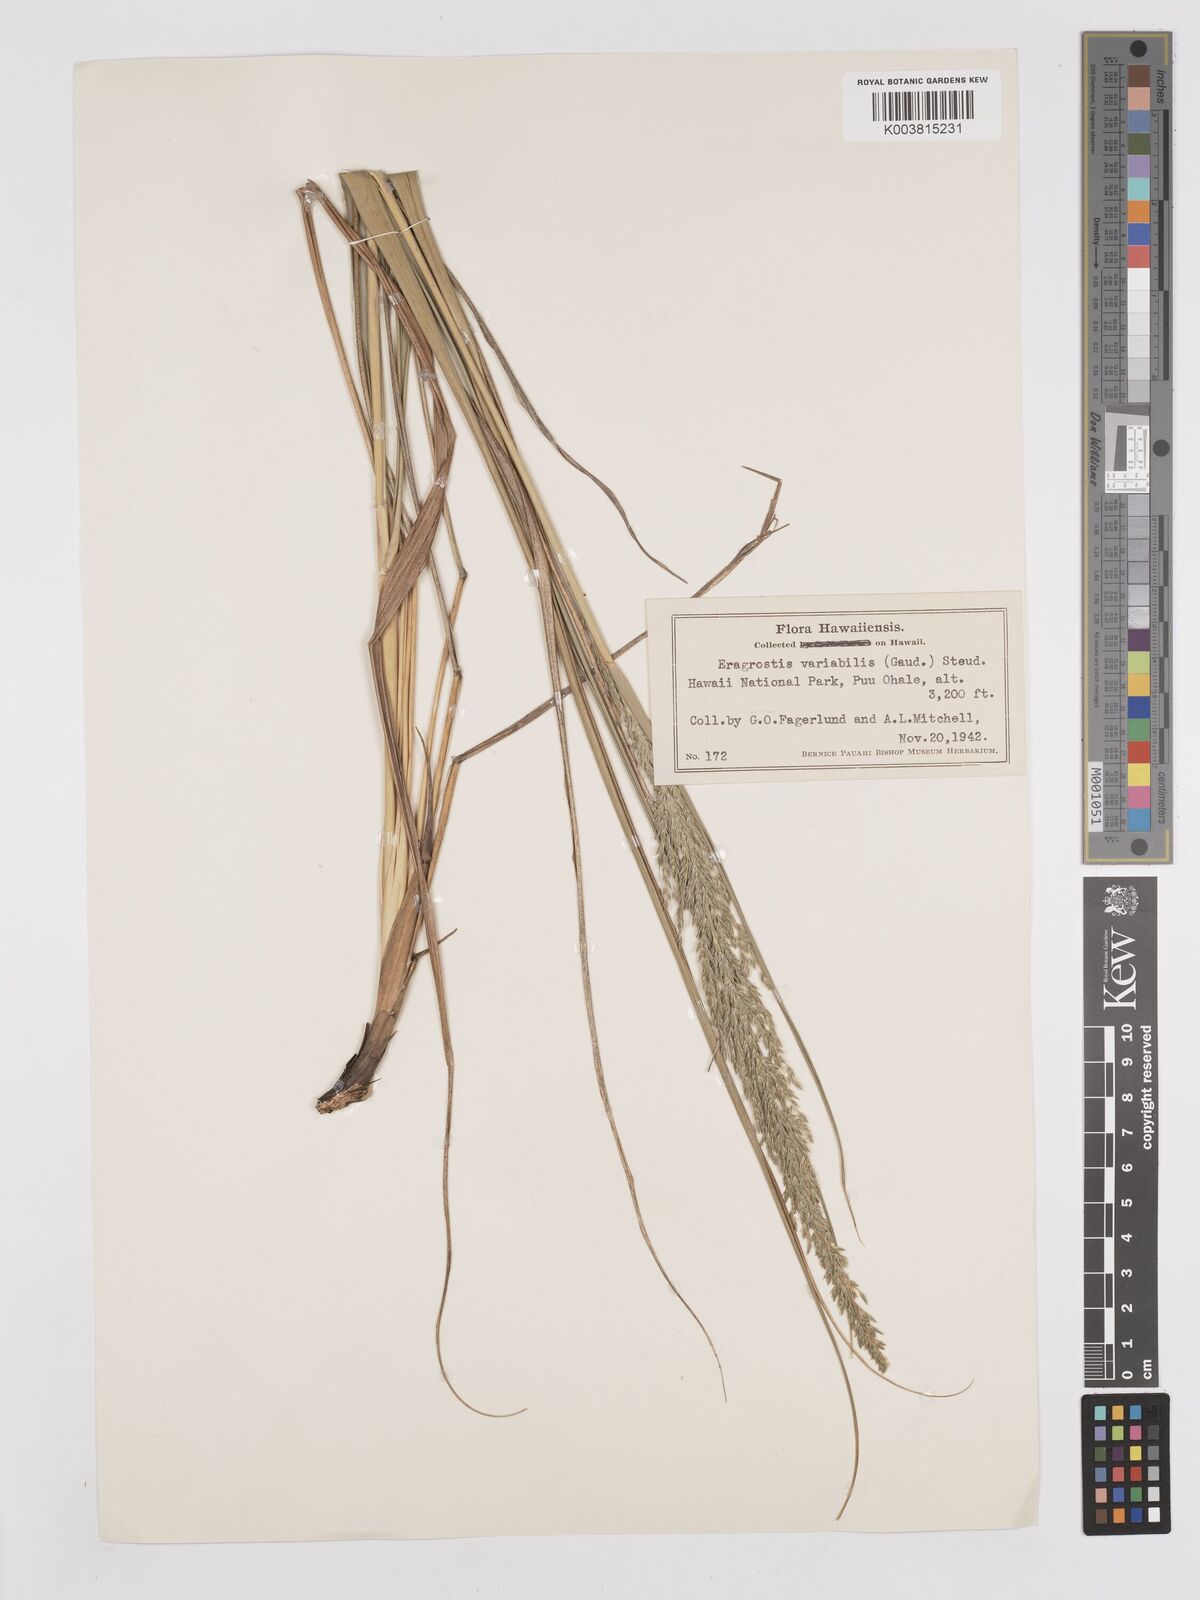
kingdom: Plantae
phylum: Tracheophyta
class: Liliopsida
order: Poales
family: Poaceae
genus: Eragrostis
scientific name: Eragrostis variabilis
